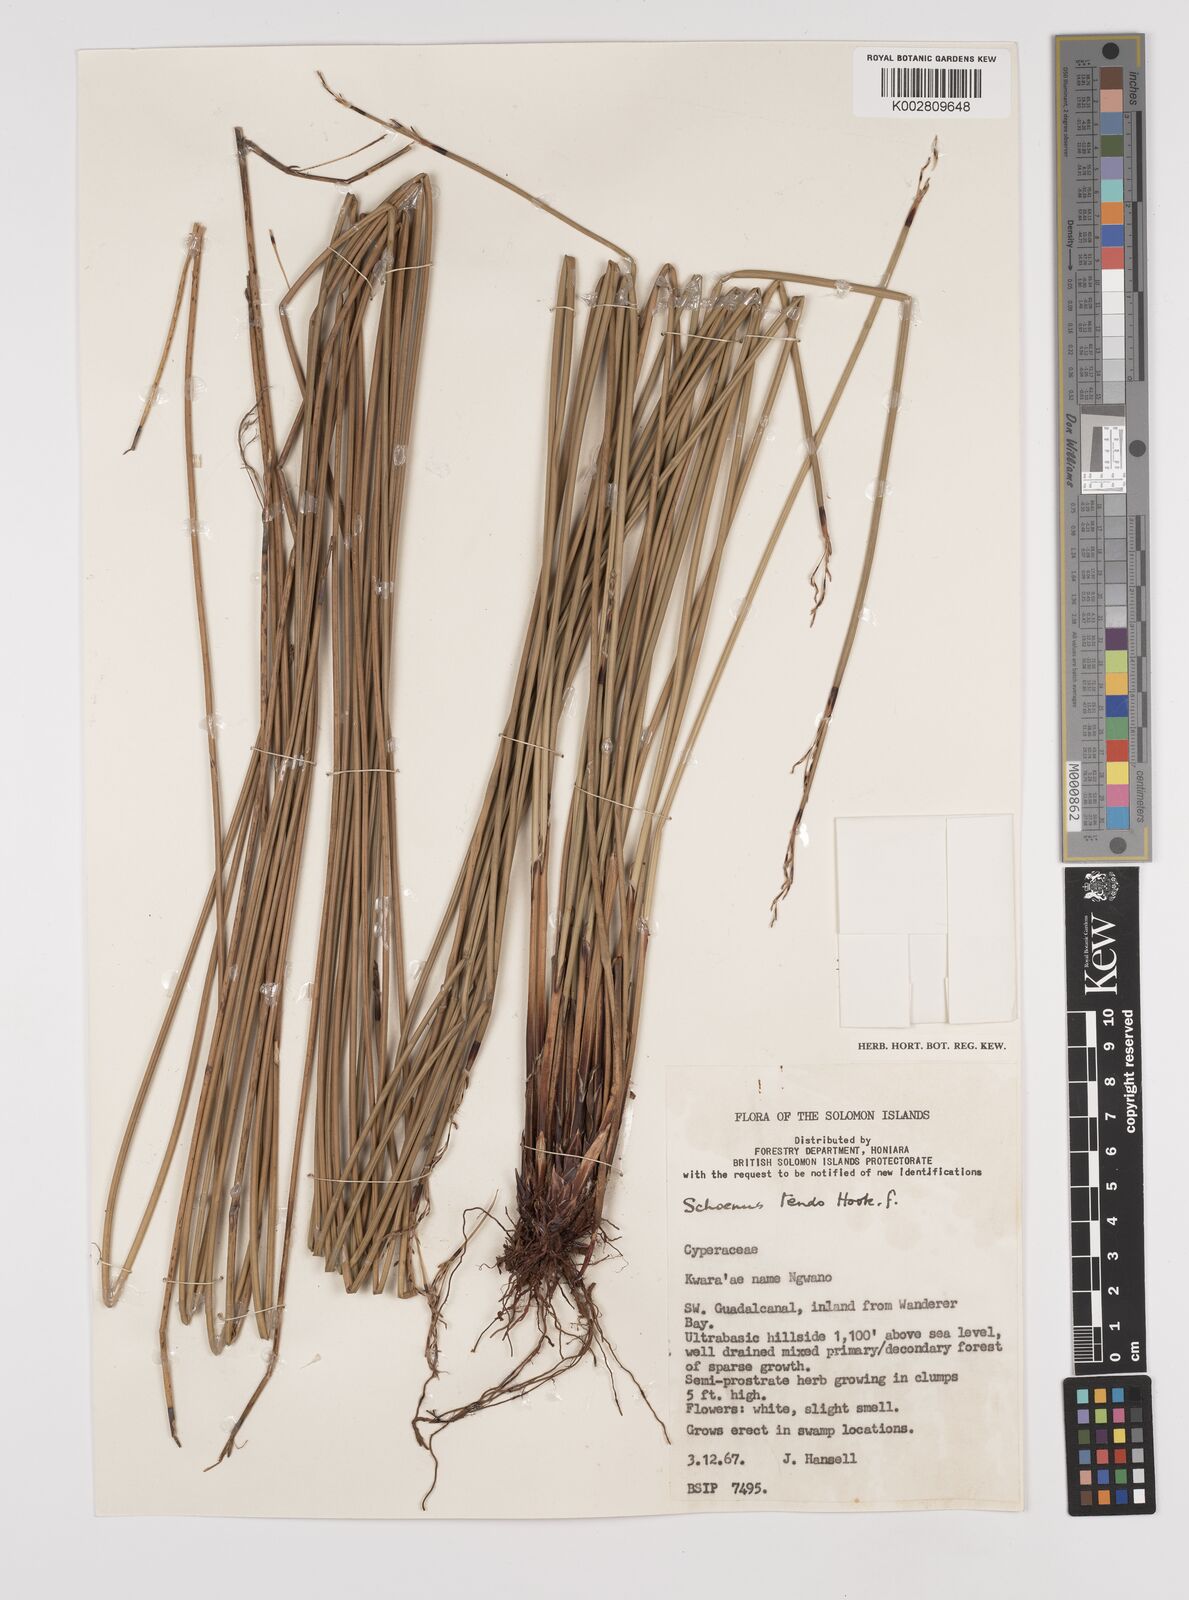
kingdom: Plantae
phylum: Tracheophyta
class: Liliopsida
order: Poales
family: Cyperaceae
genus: Schoenus
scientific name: Schoenus tendo
